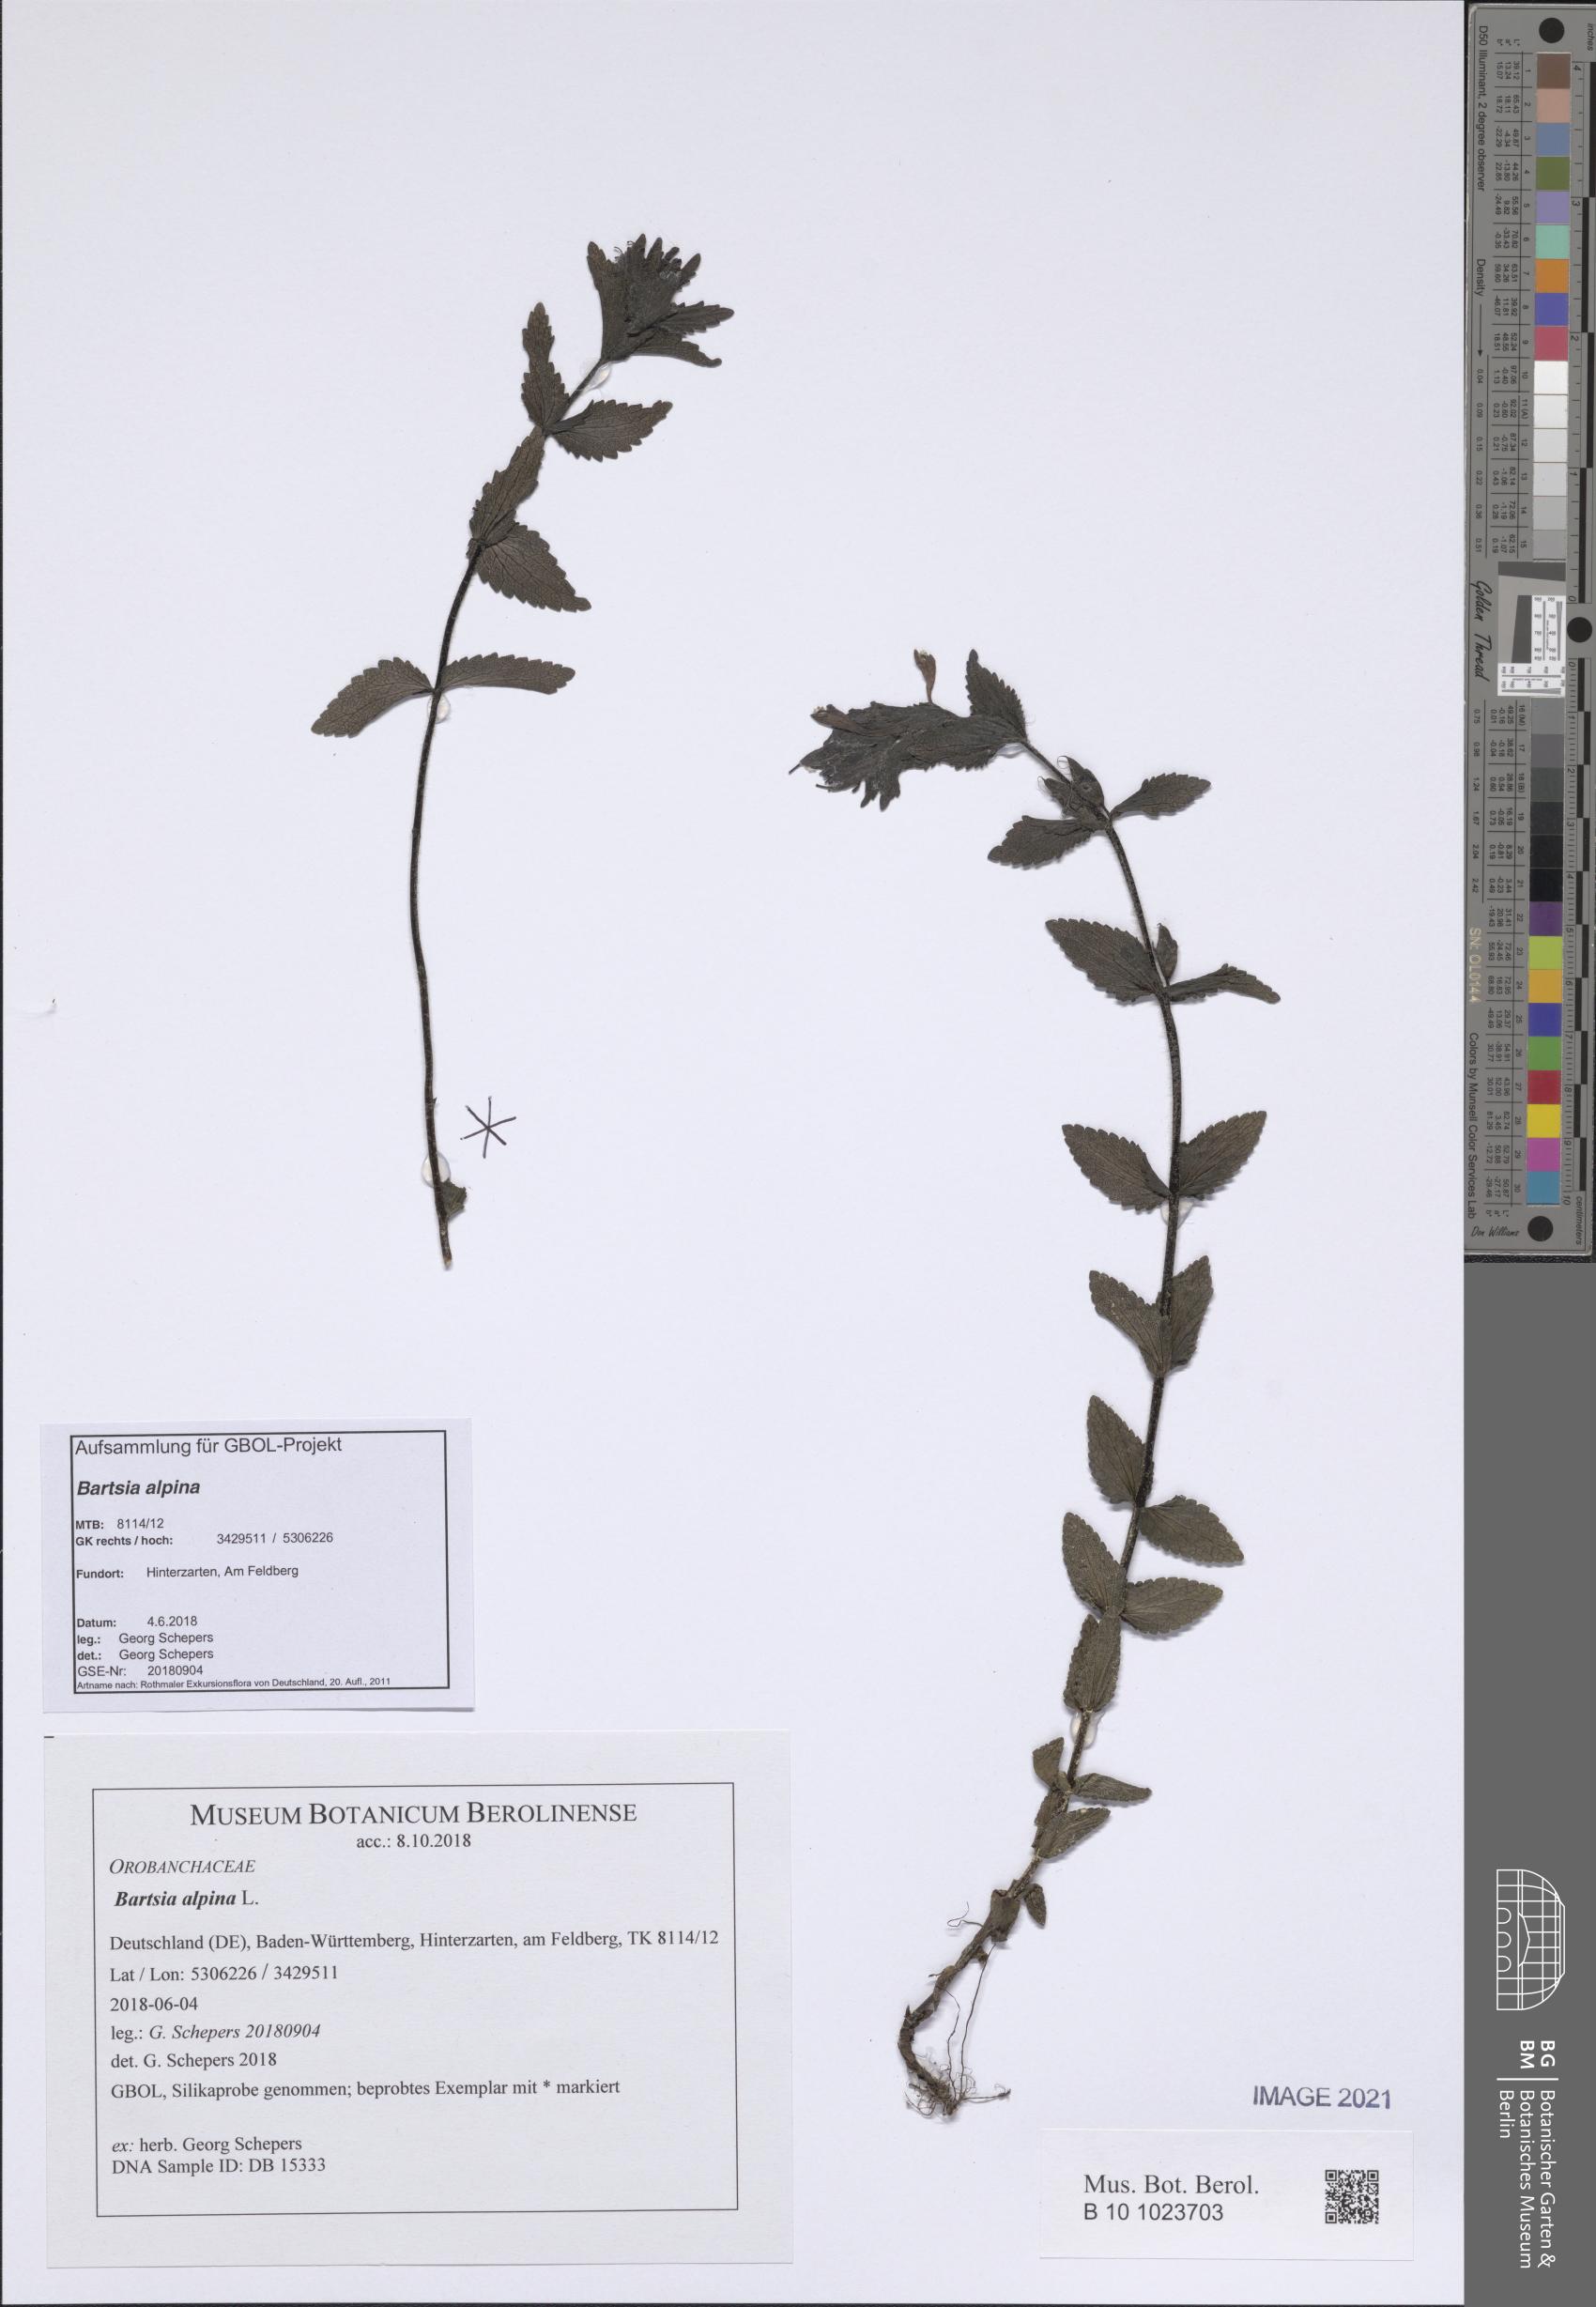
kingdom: Plantae
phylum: Tracheophyta
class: Magnoliopsida
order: Lamiales
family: Orobanchaceae
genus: Bartsia
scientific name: Bartsia alpina
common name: Alpine bartsia
